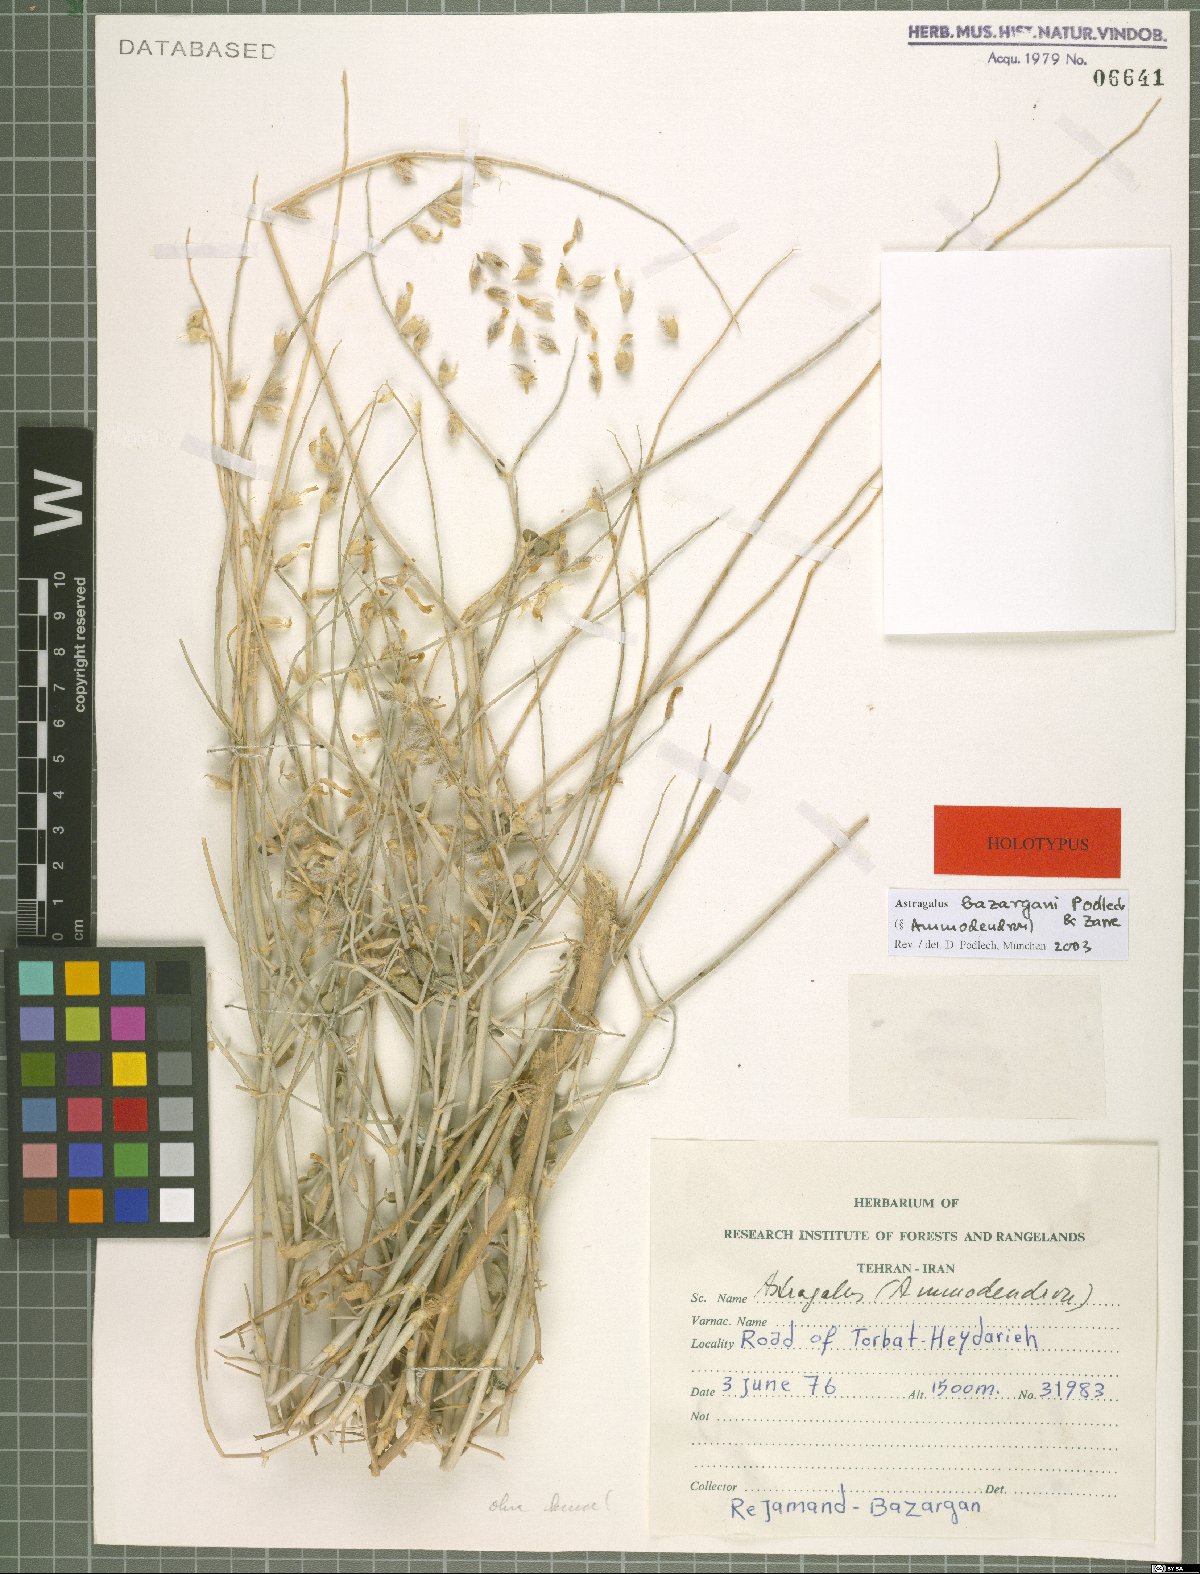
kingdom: Plantae
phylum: Tracheophyta
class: Magnoliopsida
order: Fabales
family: Fabaceae
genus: Astragalus
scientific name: Astragalus bazarganii
